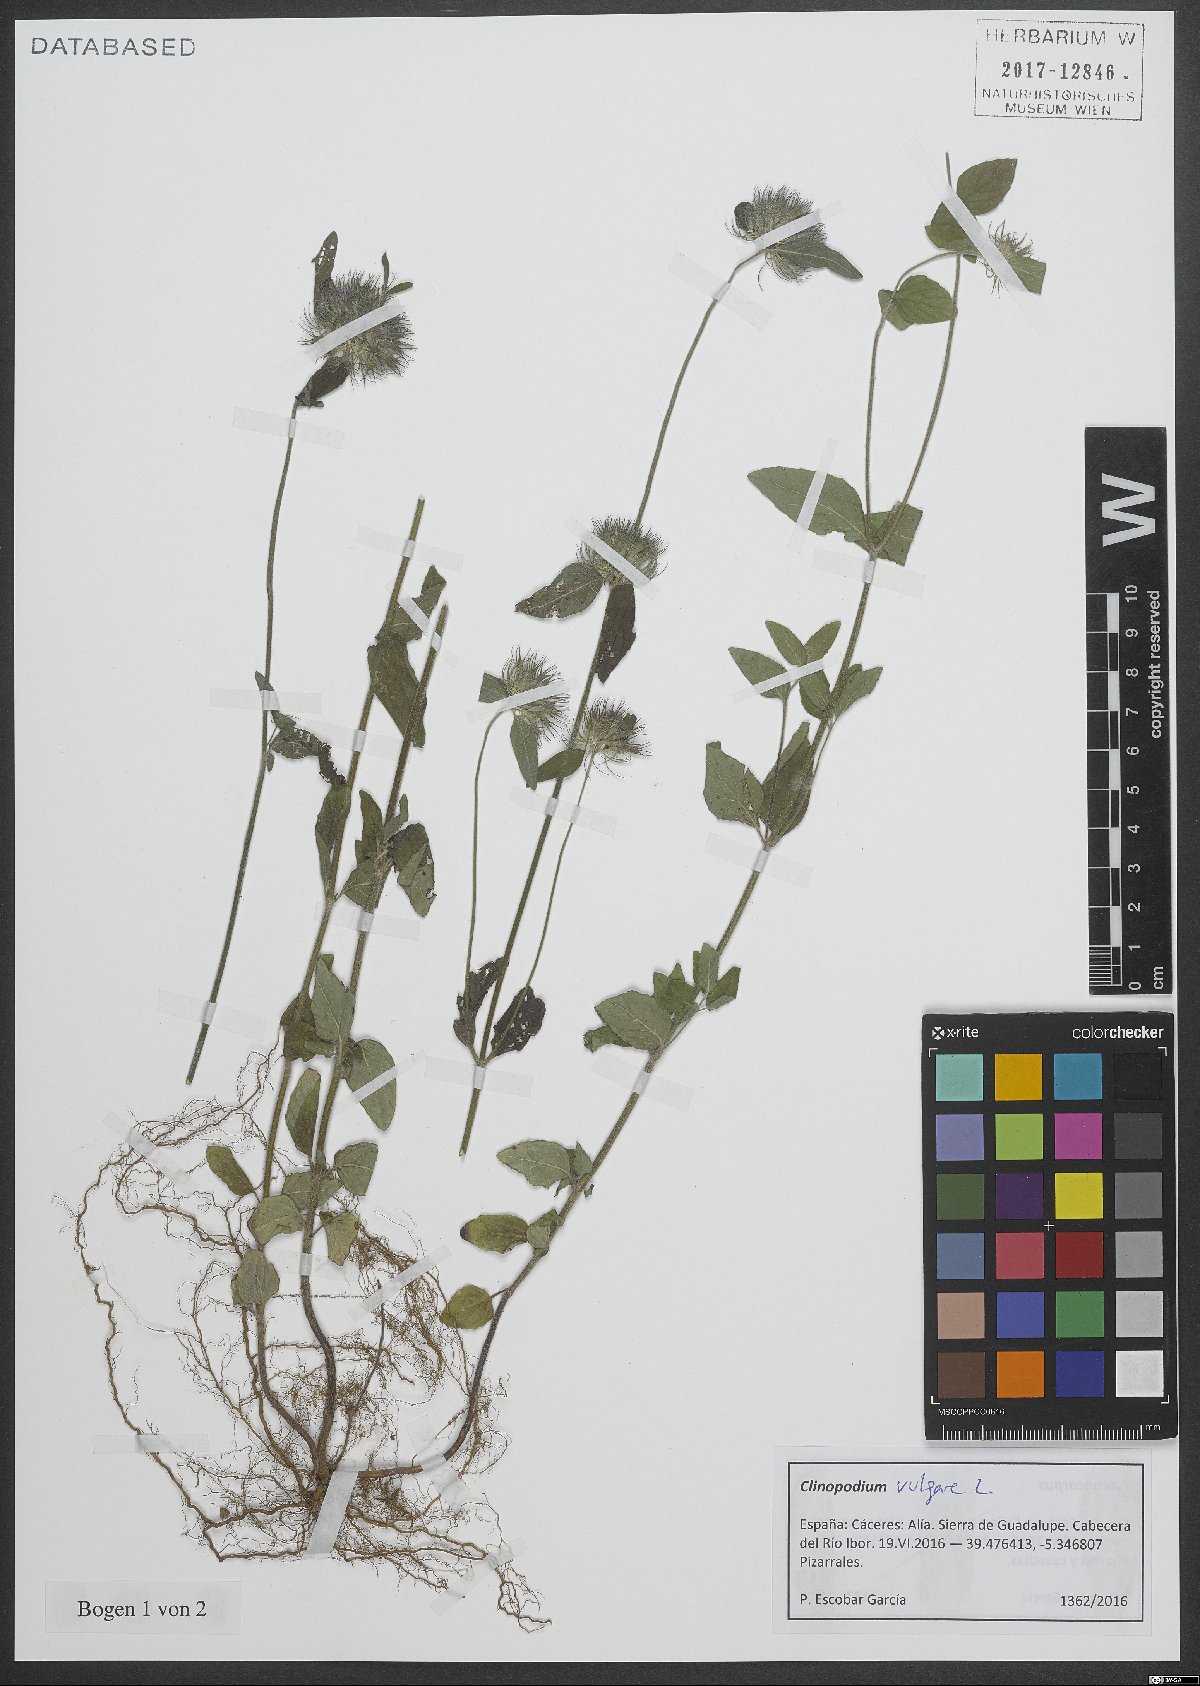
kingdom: Plantae
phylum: Tracheophyta
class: Magnoliopsida
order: Lamiales
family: Lamiaceae
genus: Clinopodium
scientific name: Clinopodium vulgare
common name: Wild basil
